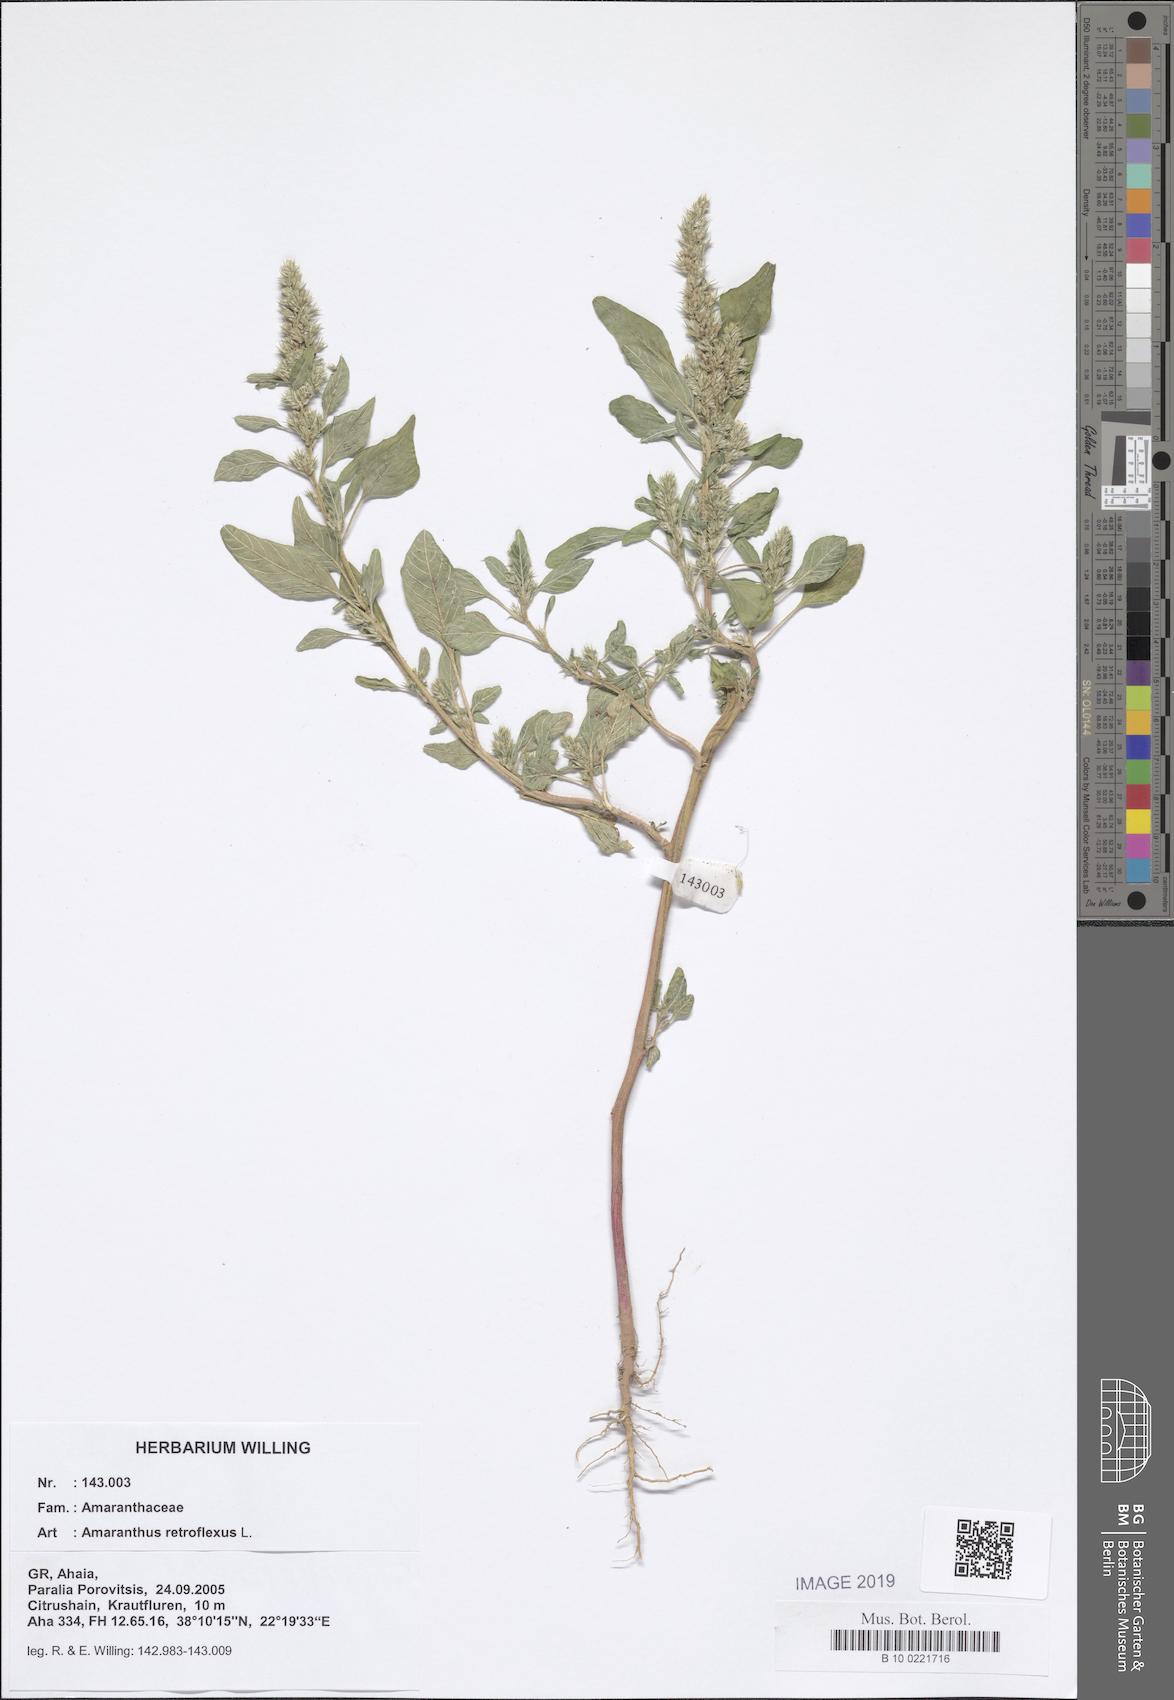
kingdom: Plantae
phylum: Tracheophyta
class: Magnoliopsida
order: Caryophyllales
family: Amaranthaceae
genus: Amaranthus
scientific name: Amaranthus retroflexus
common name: Redroot amaranth
